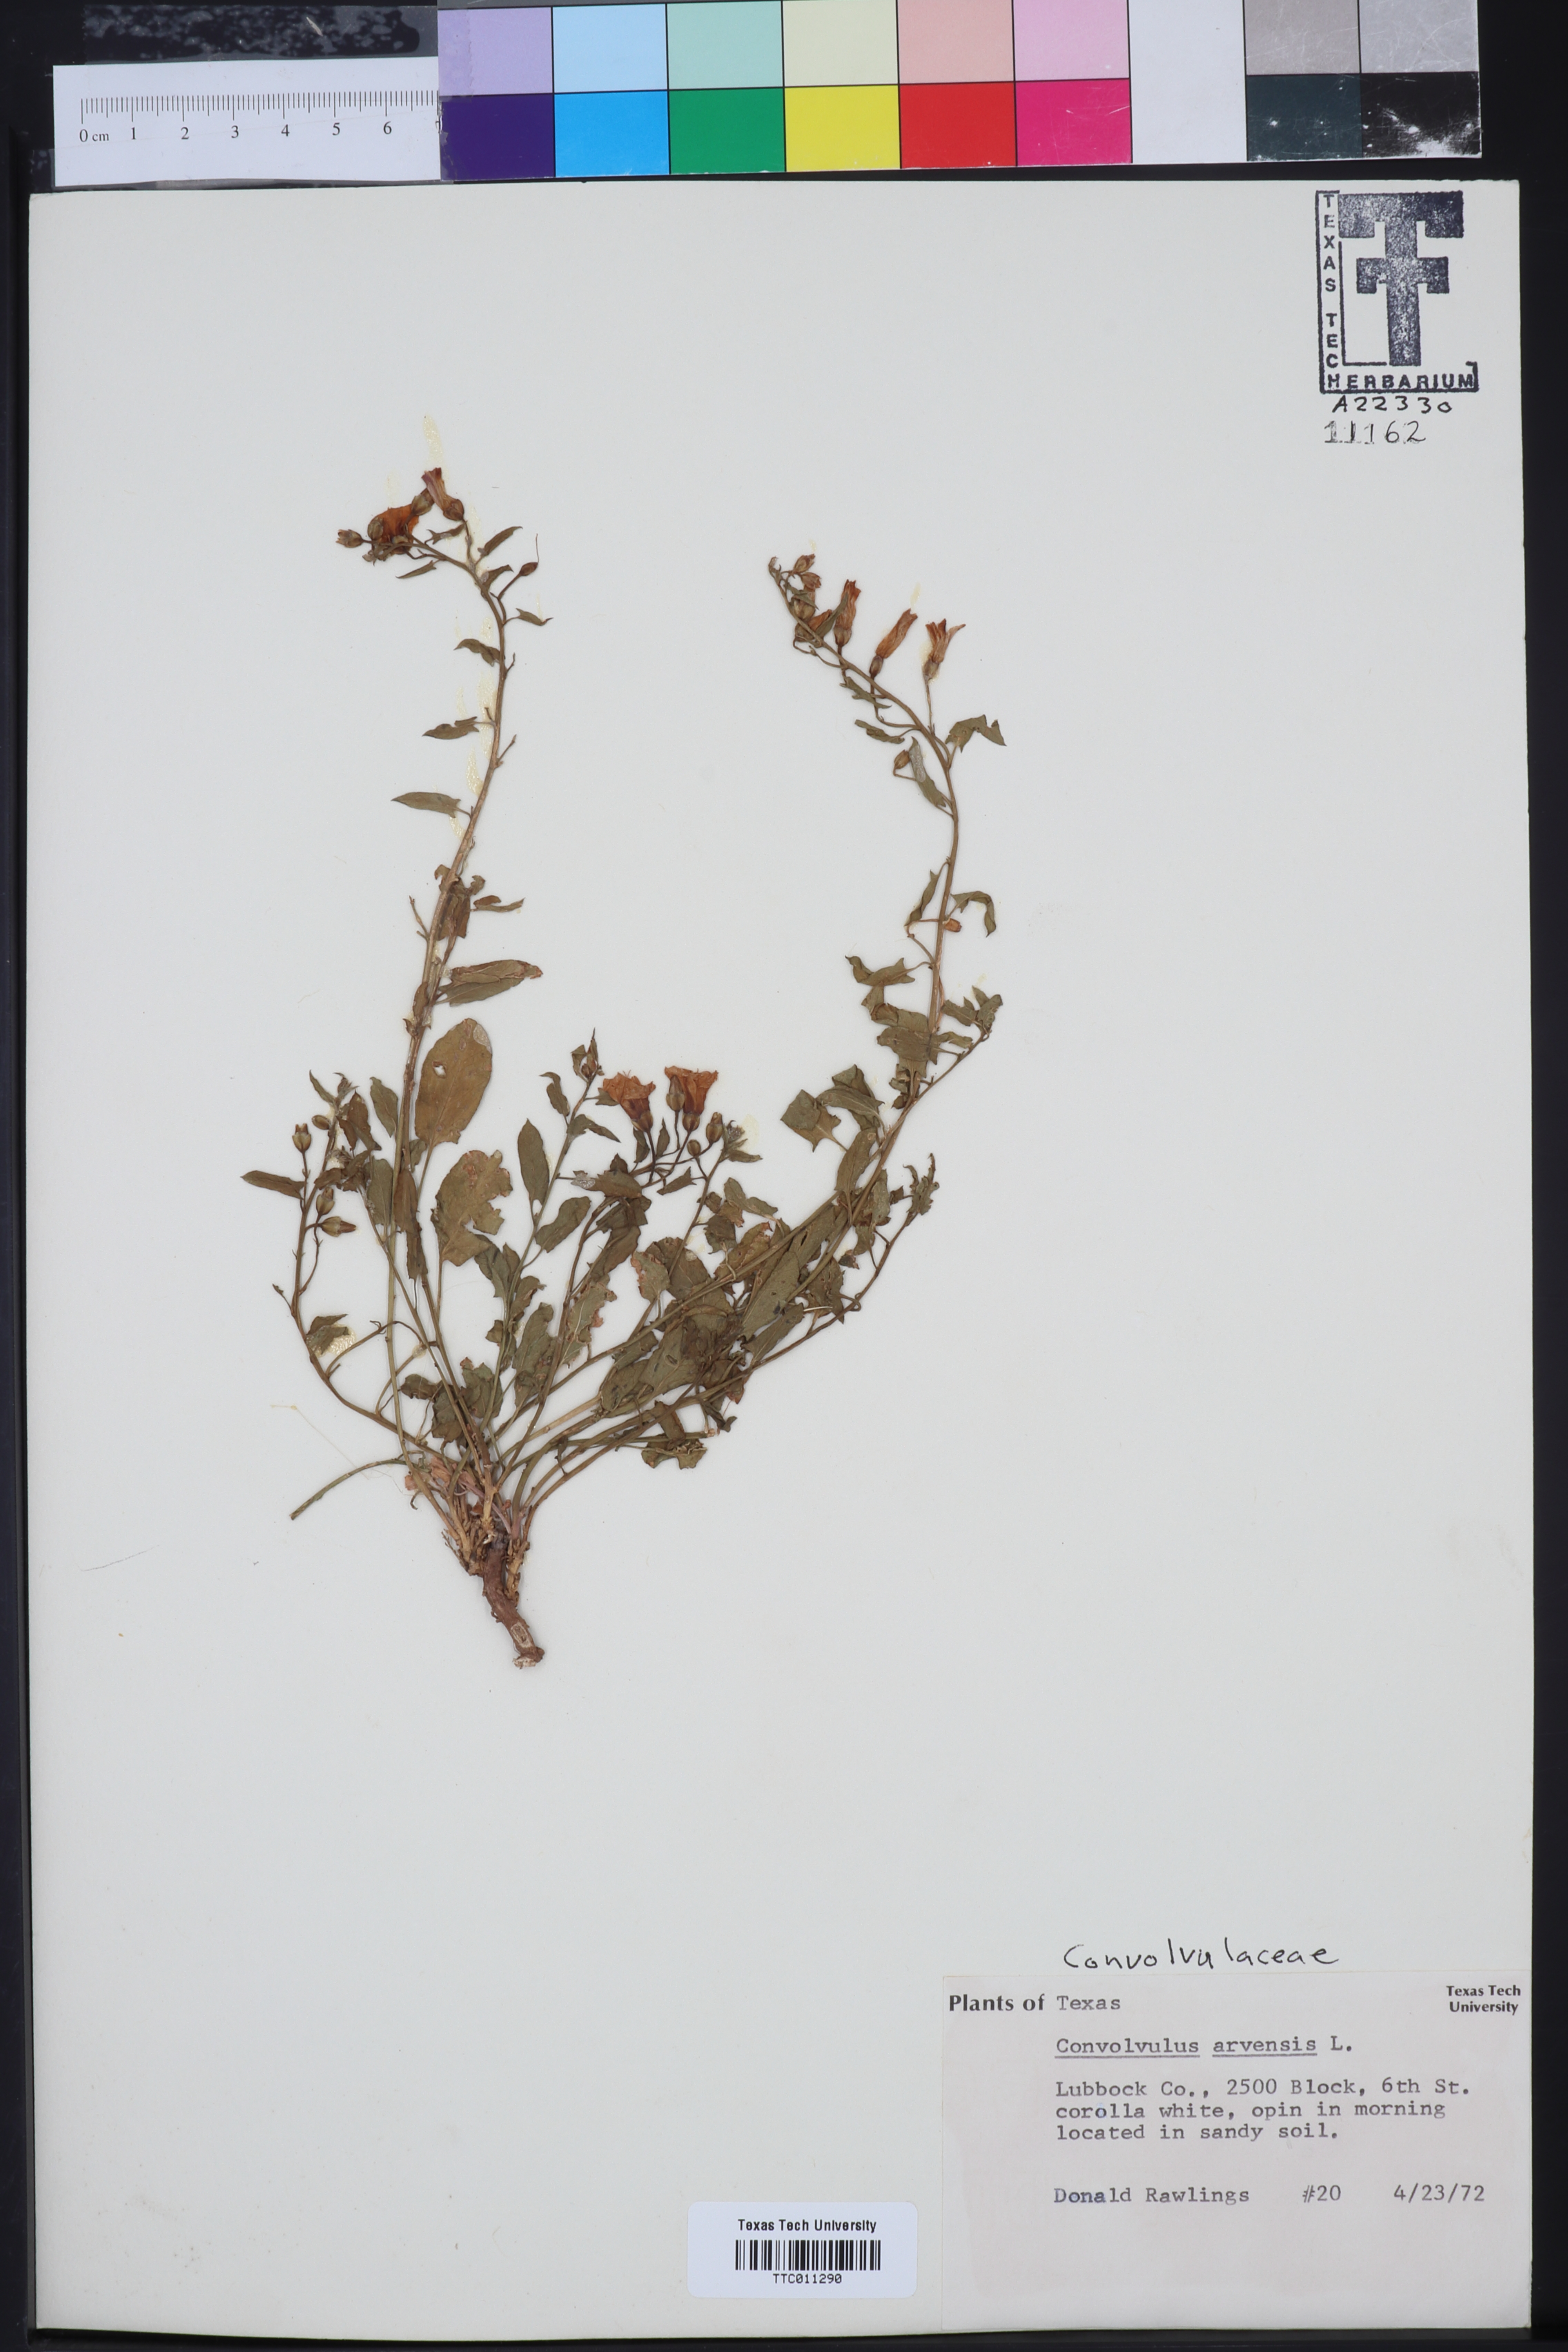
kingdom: Plantae
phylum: Tracheophyta
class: Magnoliopsida
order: Solanales
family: Convolvulaceae
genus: Convolvulus
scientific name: Convolvulus arvensis
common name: Field bindweed
